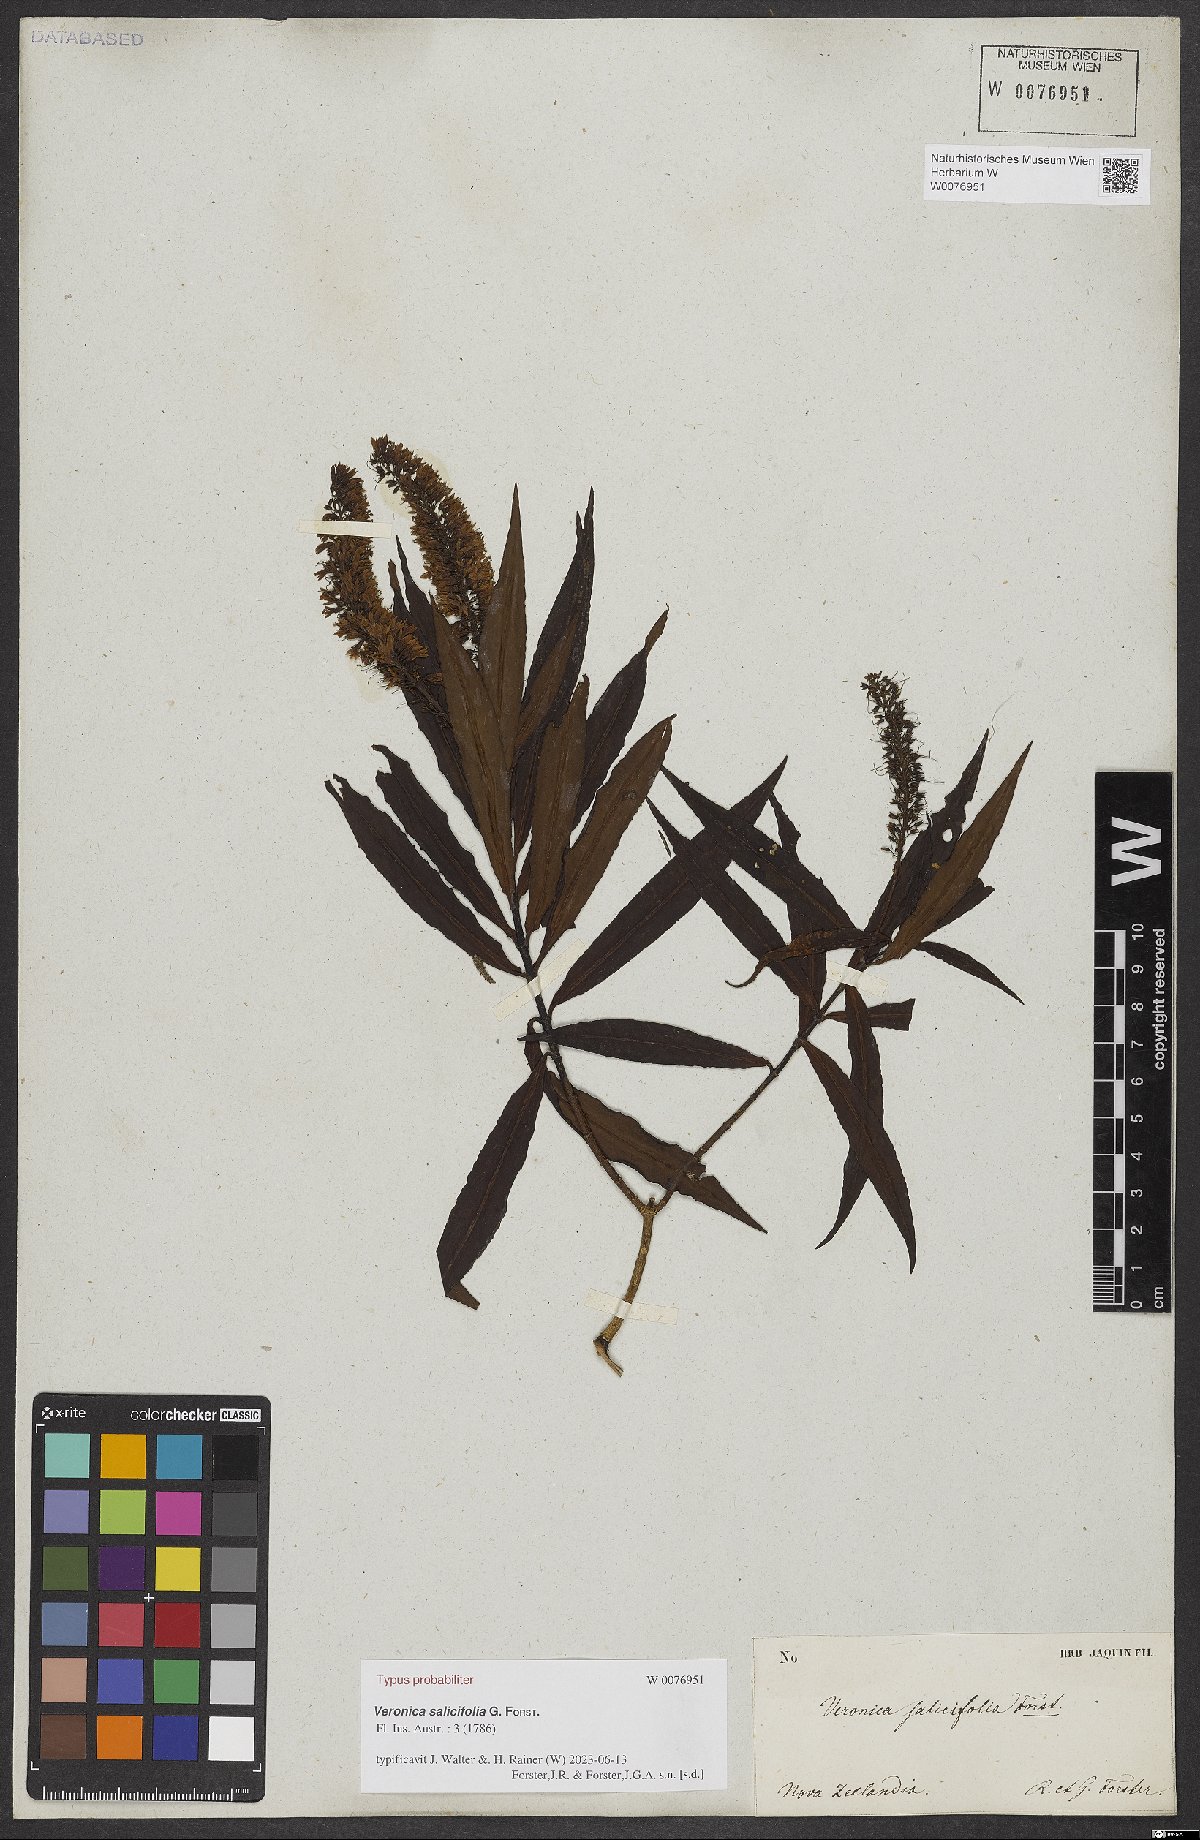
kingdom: Plantae
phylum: Tracheophyta
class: Magnoliopsida
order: Lamiales
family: Plantaginaceae
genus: Veronica
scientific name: Veronica salicifolia
